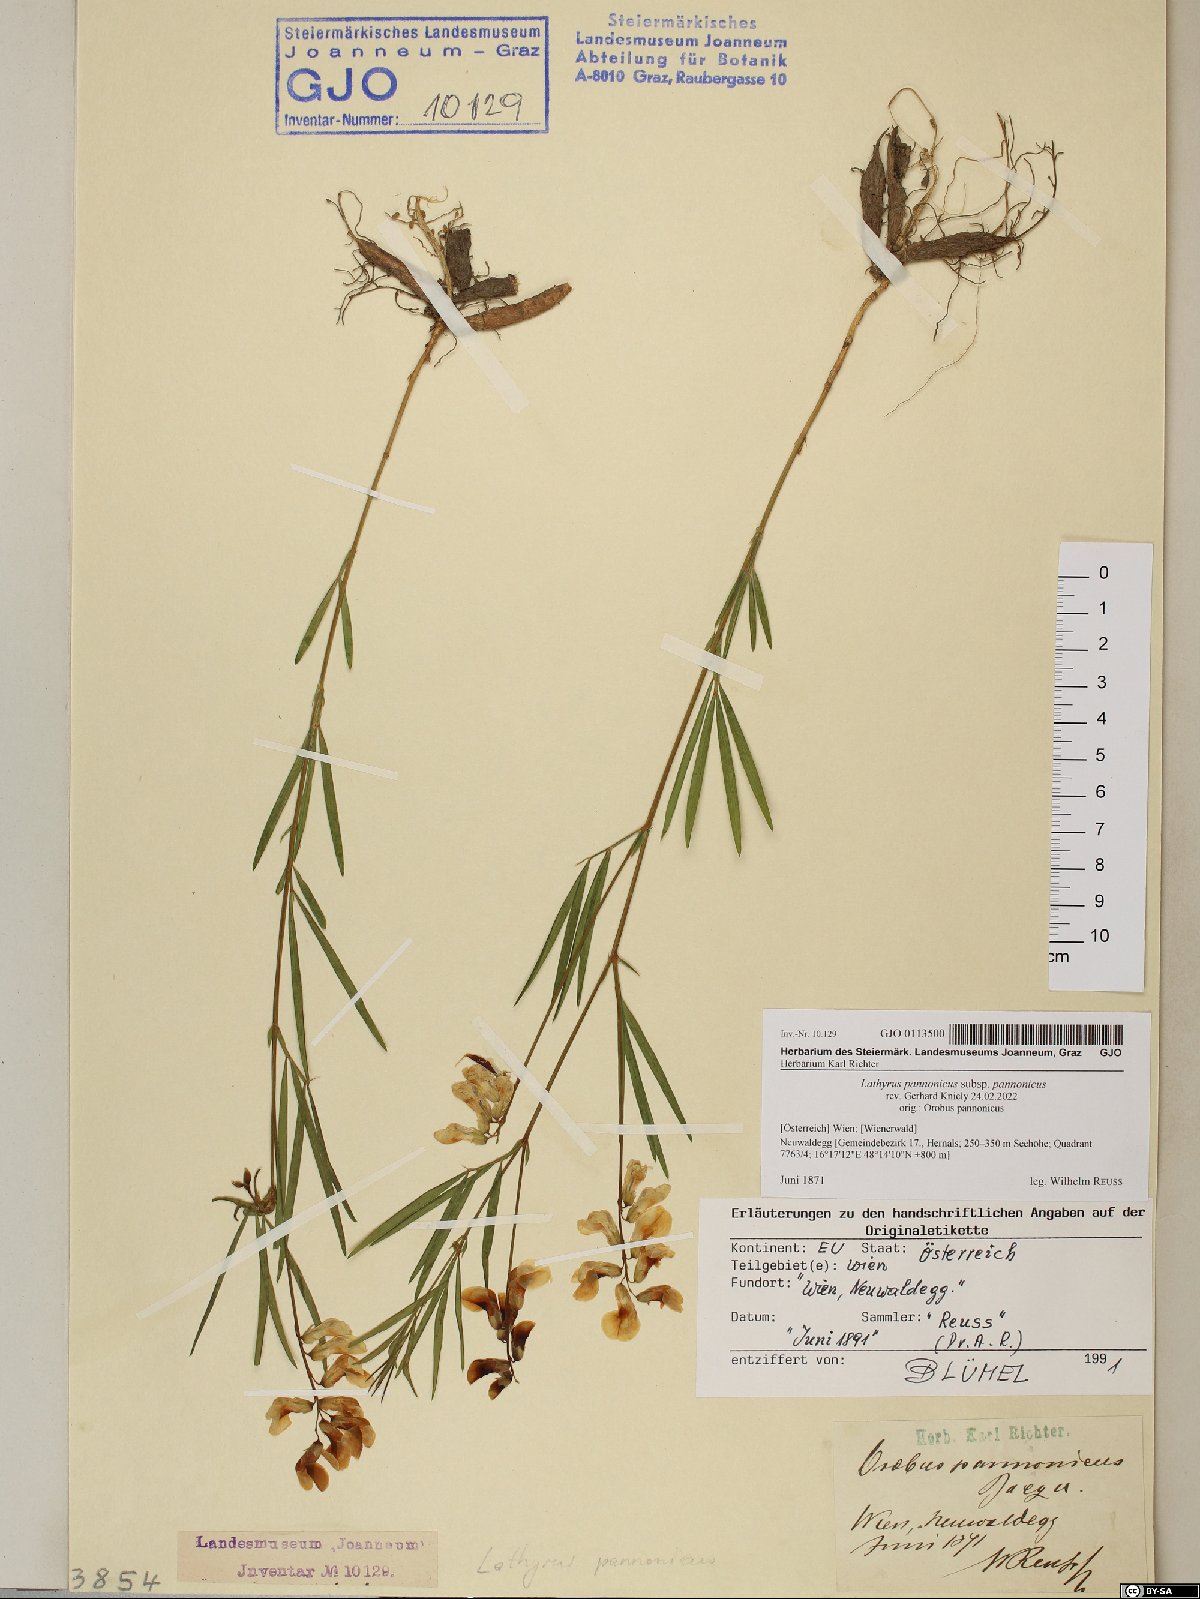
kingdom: Plantae
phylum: Tracheophyta
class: Magnoliopsida
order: Fabales
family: Fabaceae
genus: Lathyrus
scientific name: Lathyrus pannonicus
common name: Pea
